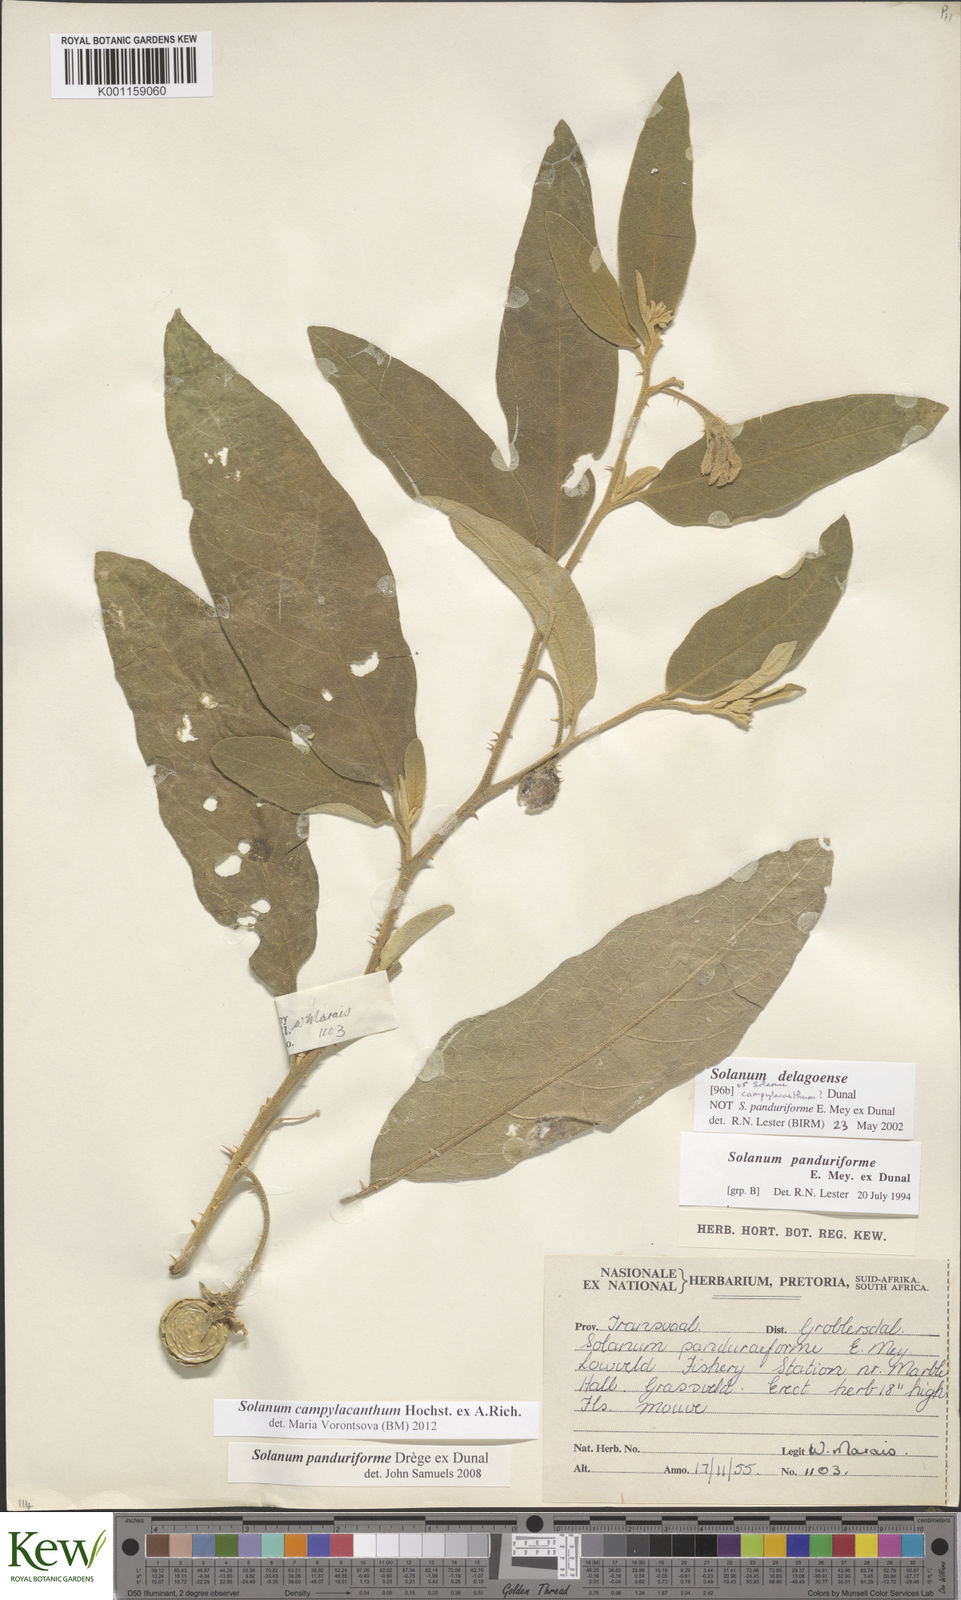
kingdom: Plantae
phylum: Tracheophyta
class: Magnoliopsida
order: Solanales
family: Solanaceae
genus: Solanum
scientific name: Solanum campylacanthum
